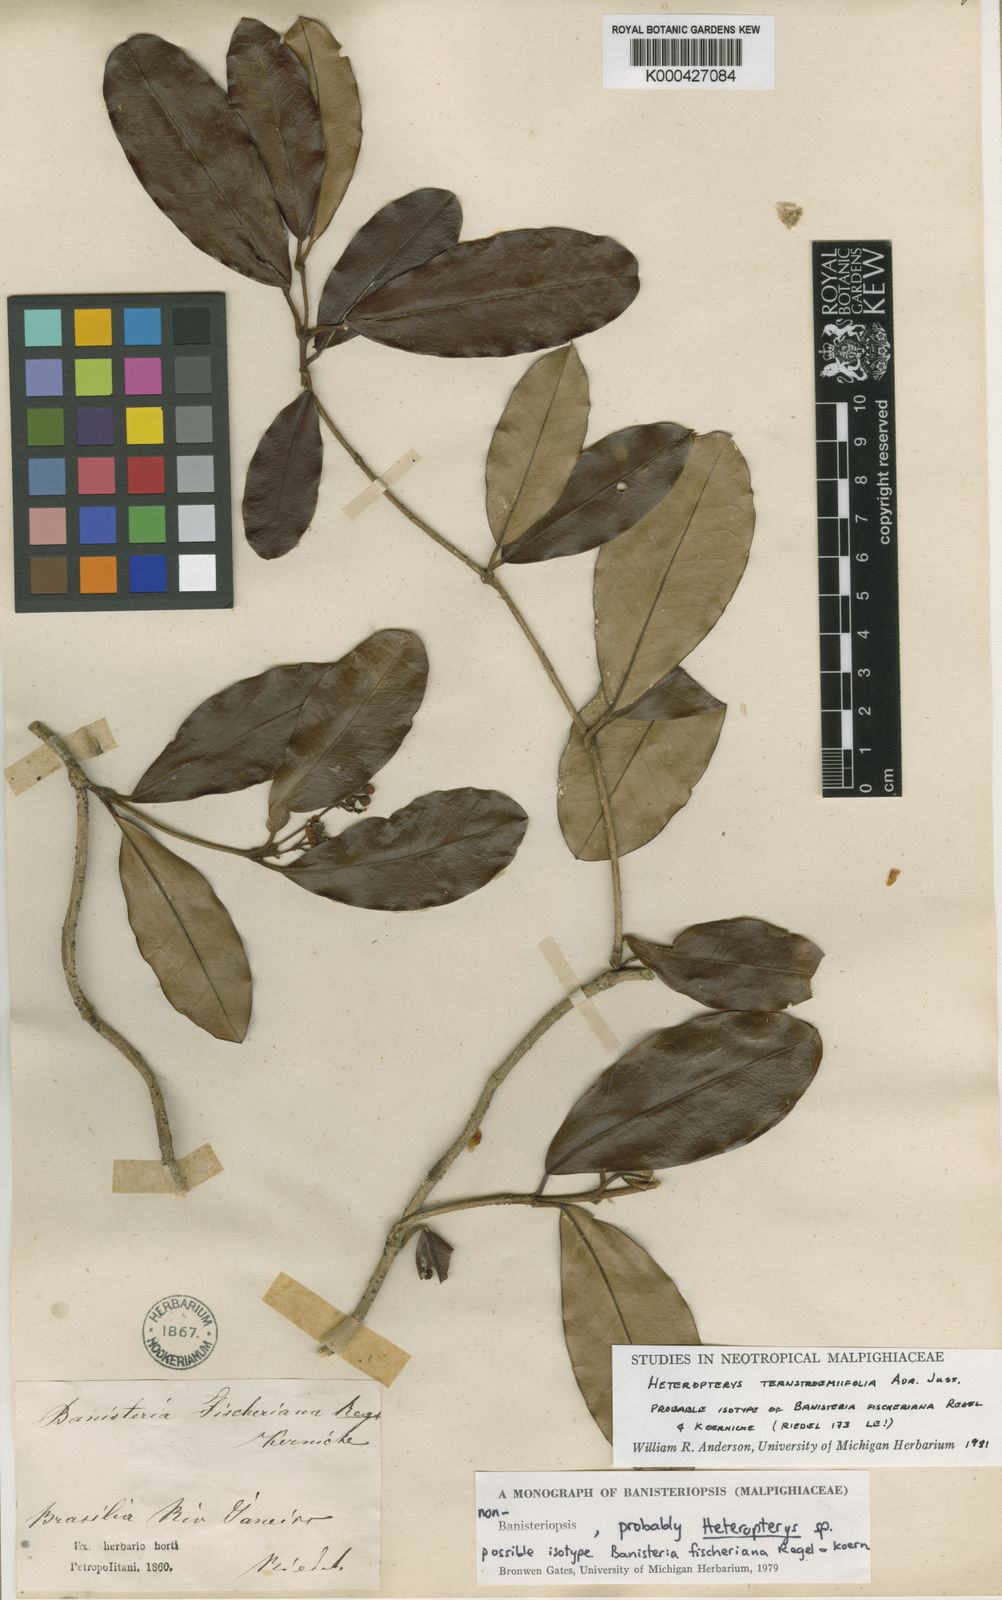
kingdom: Plantae
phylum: Tracheophyta
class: Magnoliopsida
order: Malpighiales
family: Malpighiaceae
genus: Heteropterys
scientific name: Heteropterys ternstroemiifolia
